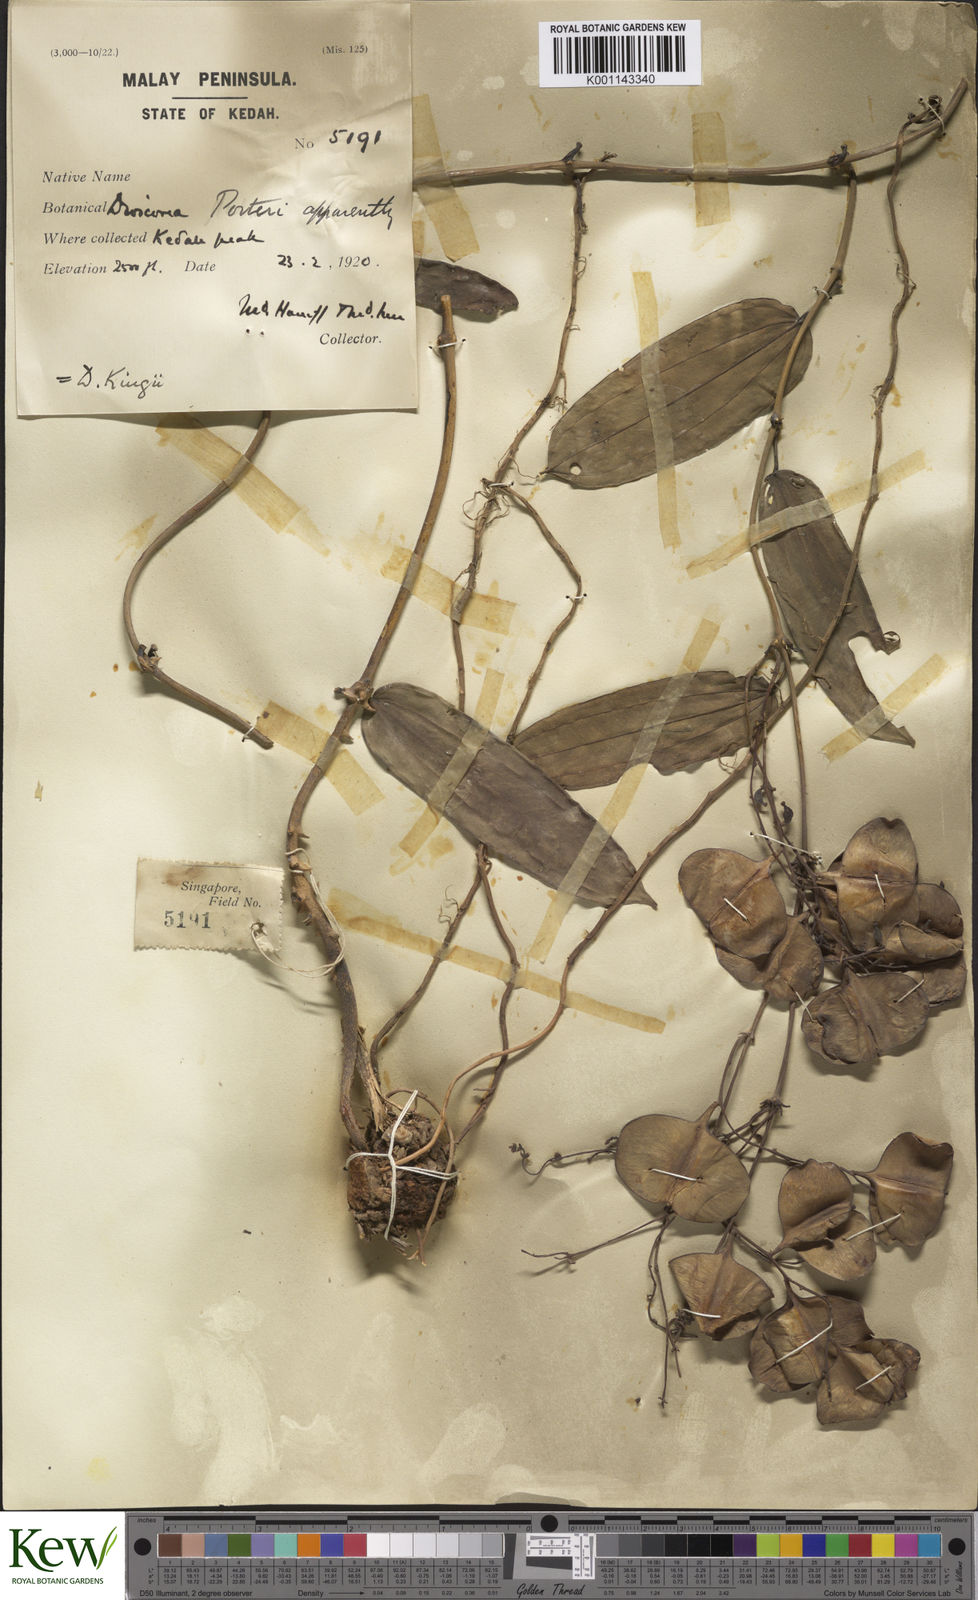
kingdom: Plantae
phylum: Tracheophyta
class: Liliopsida
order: Dioscoreales
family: Dioscoreaceae
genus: Dioscorea
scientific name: Dioscorea kingii
